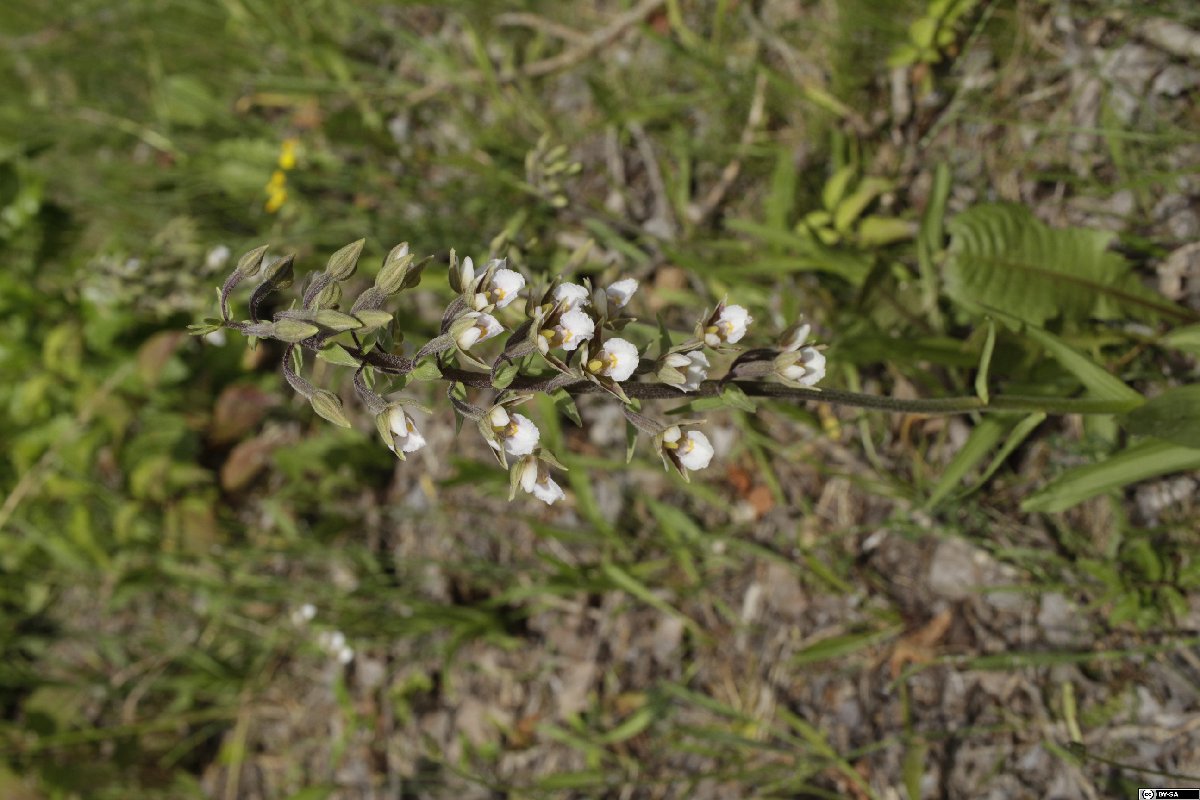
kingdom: Plantae
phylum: Tracheophyta
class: Liliopsida
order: Asparagales
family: Orchidaceae
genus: Epipactis
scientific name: Epipactis palustris
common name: Marsh helleborine
